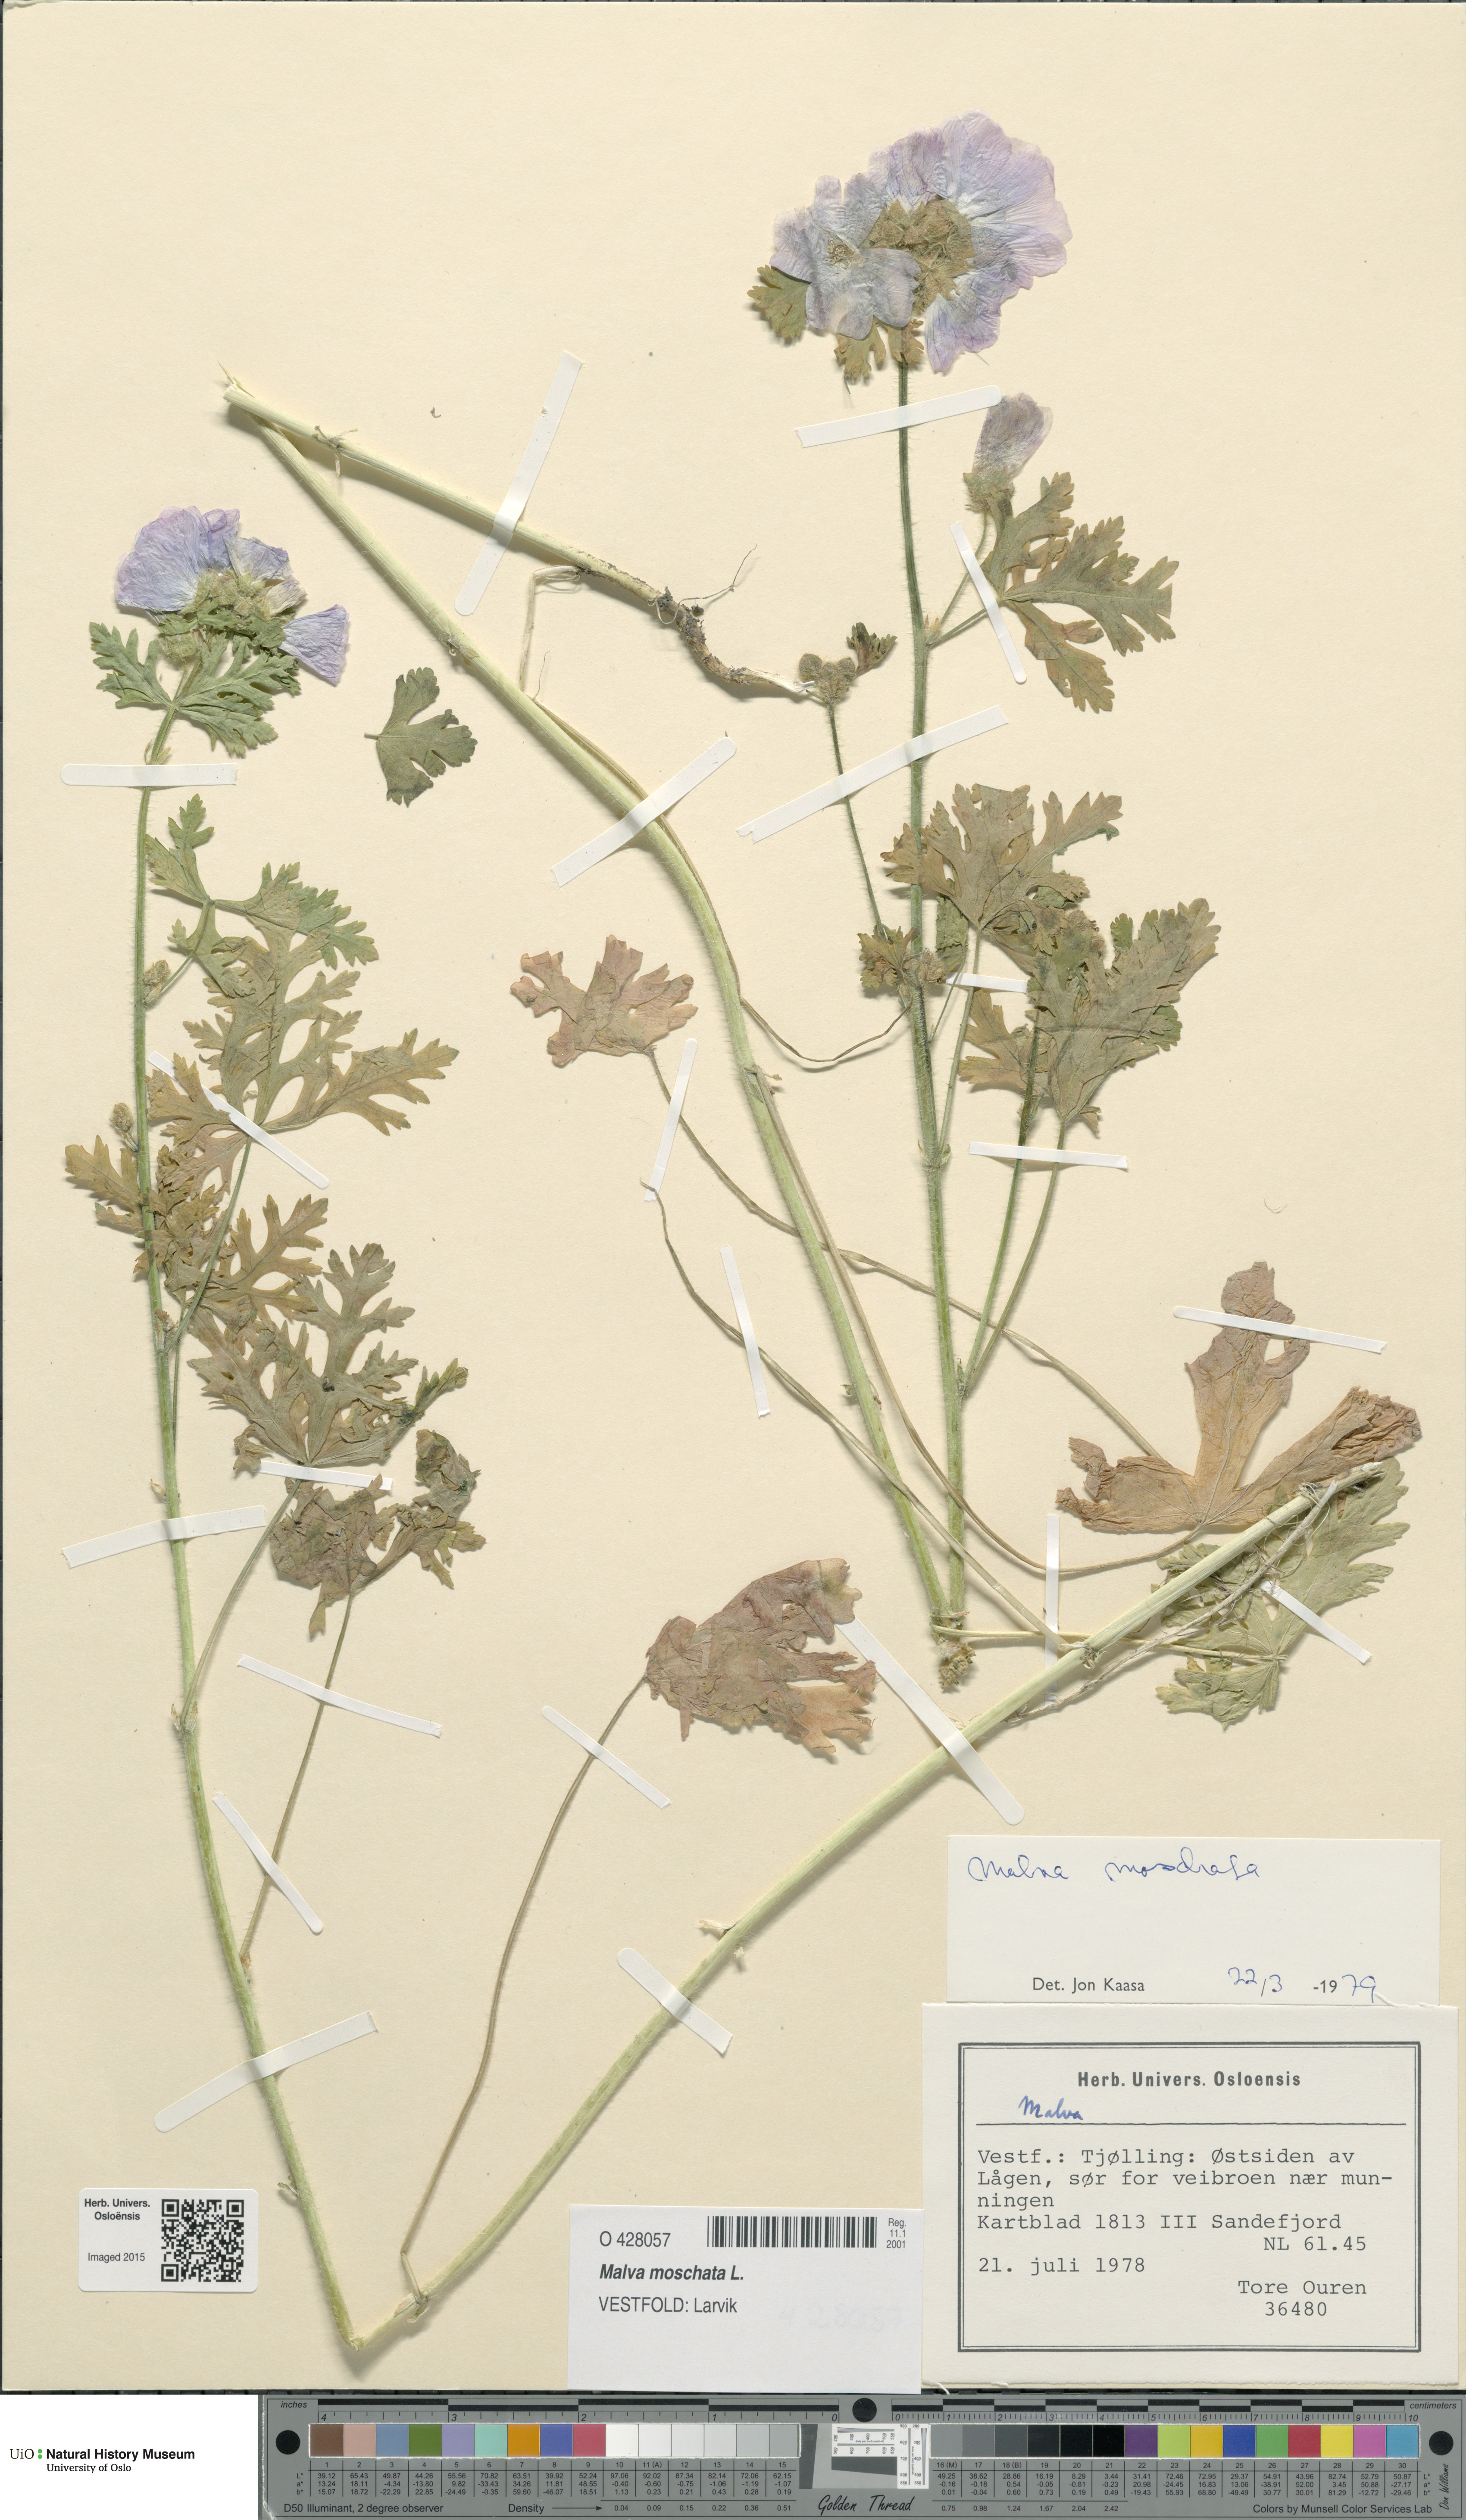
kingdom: Plantae
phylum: Tracheophyta
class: Magnoliopsida
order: Malvales
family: Malvaceae
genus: Malva
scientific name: Malva moschata
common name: Musk mallow
